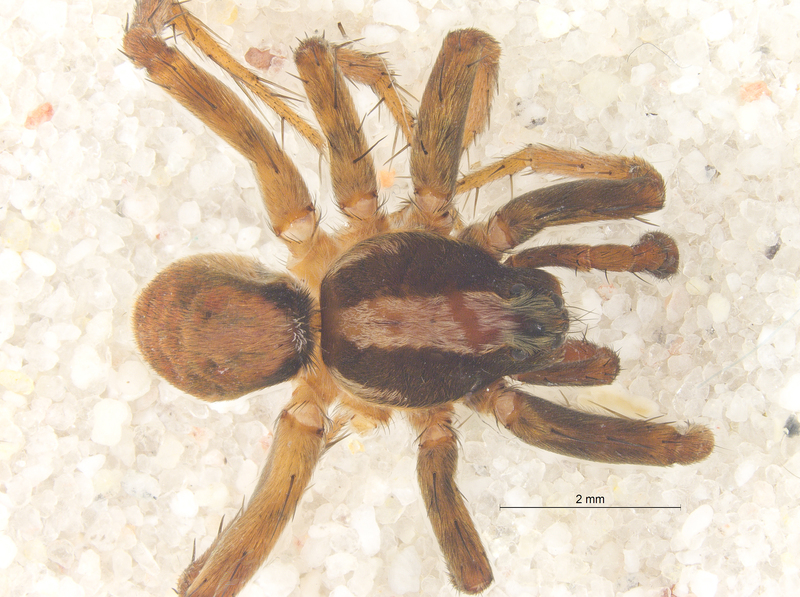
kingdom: Animalia
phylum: Arthropoda
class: Arachnida
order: Araneae
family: Lycosidae
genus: Xerolycosa
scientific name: Xerolycosa nemoralis
